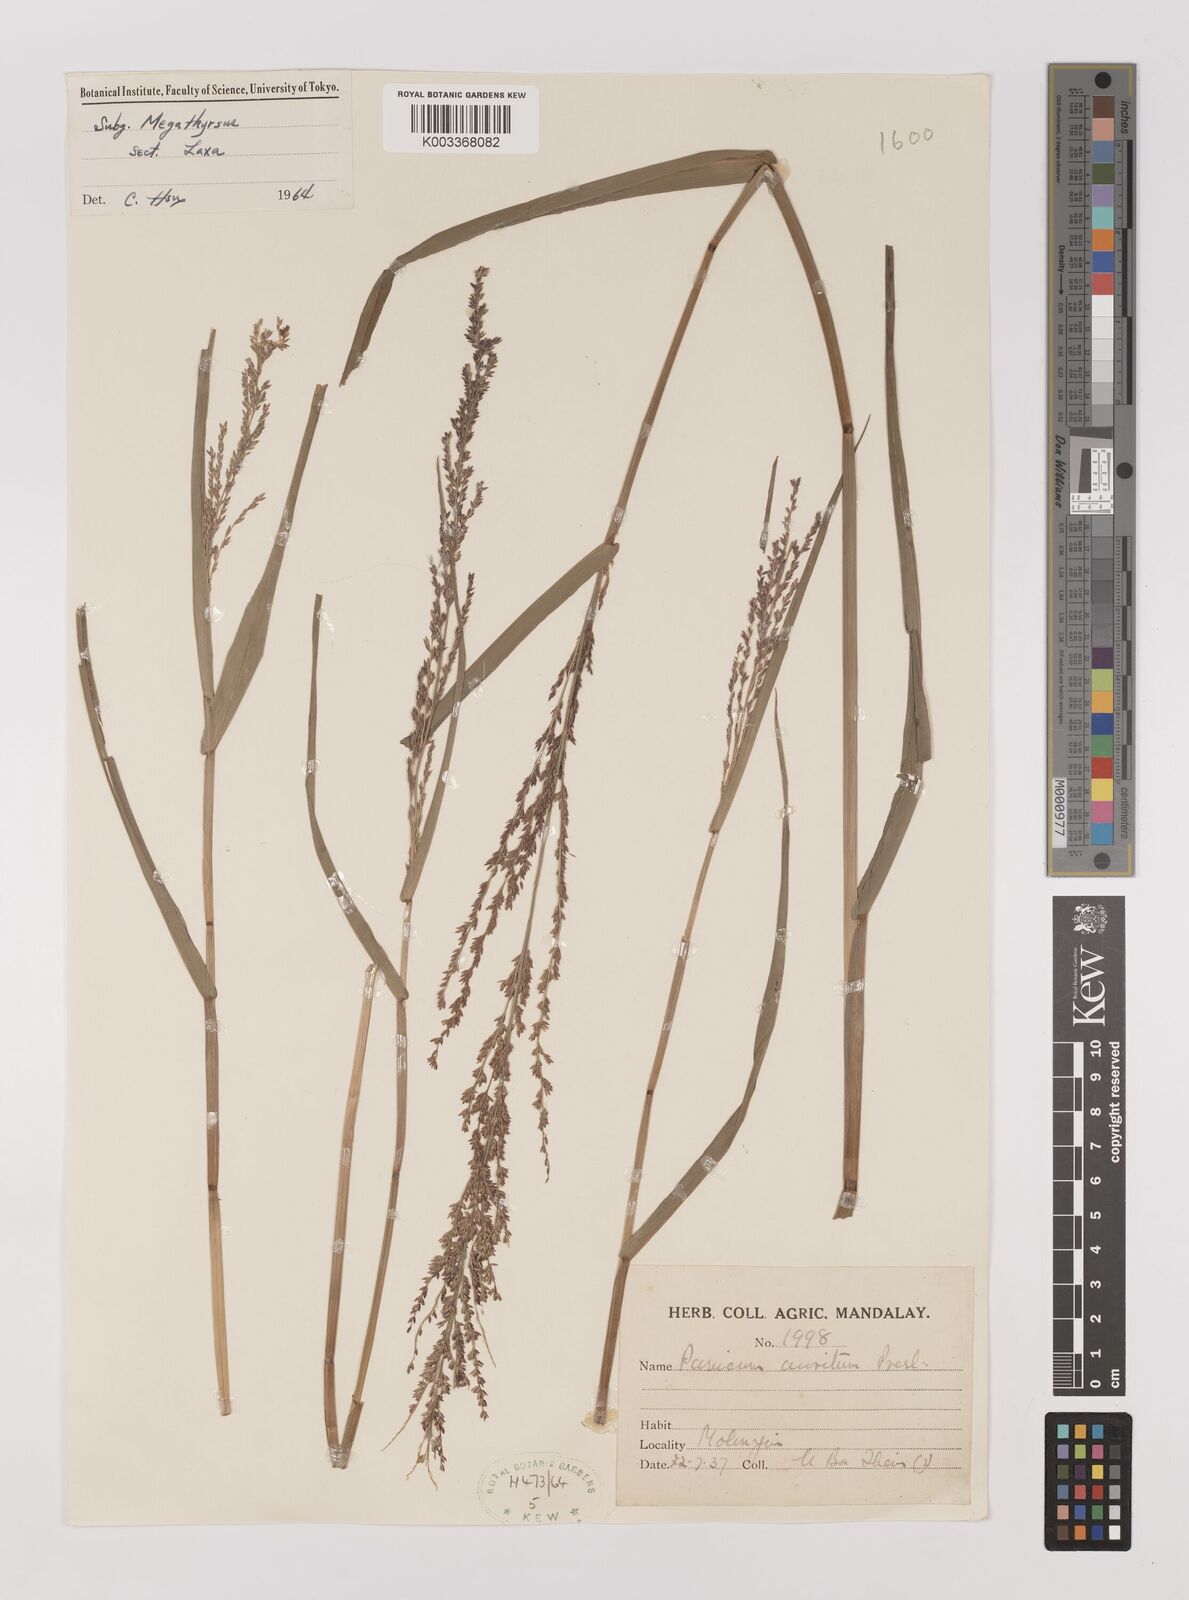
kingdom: Plantae
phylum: Tracheophyta
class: Liliopsida
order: Poales
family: Poaceae
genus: Hymenachne
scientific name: Hymenachne aurita
